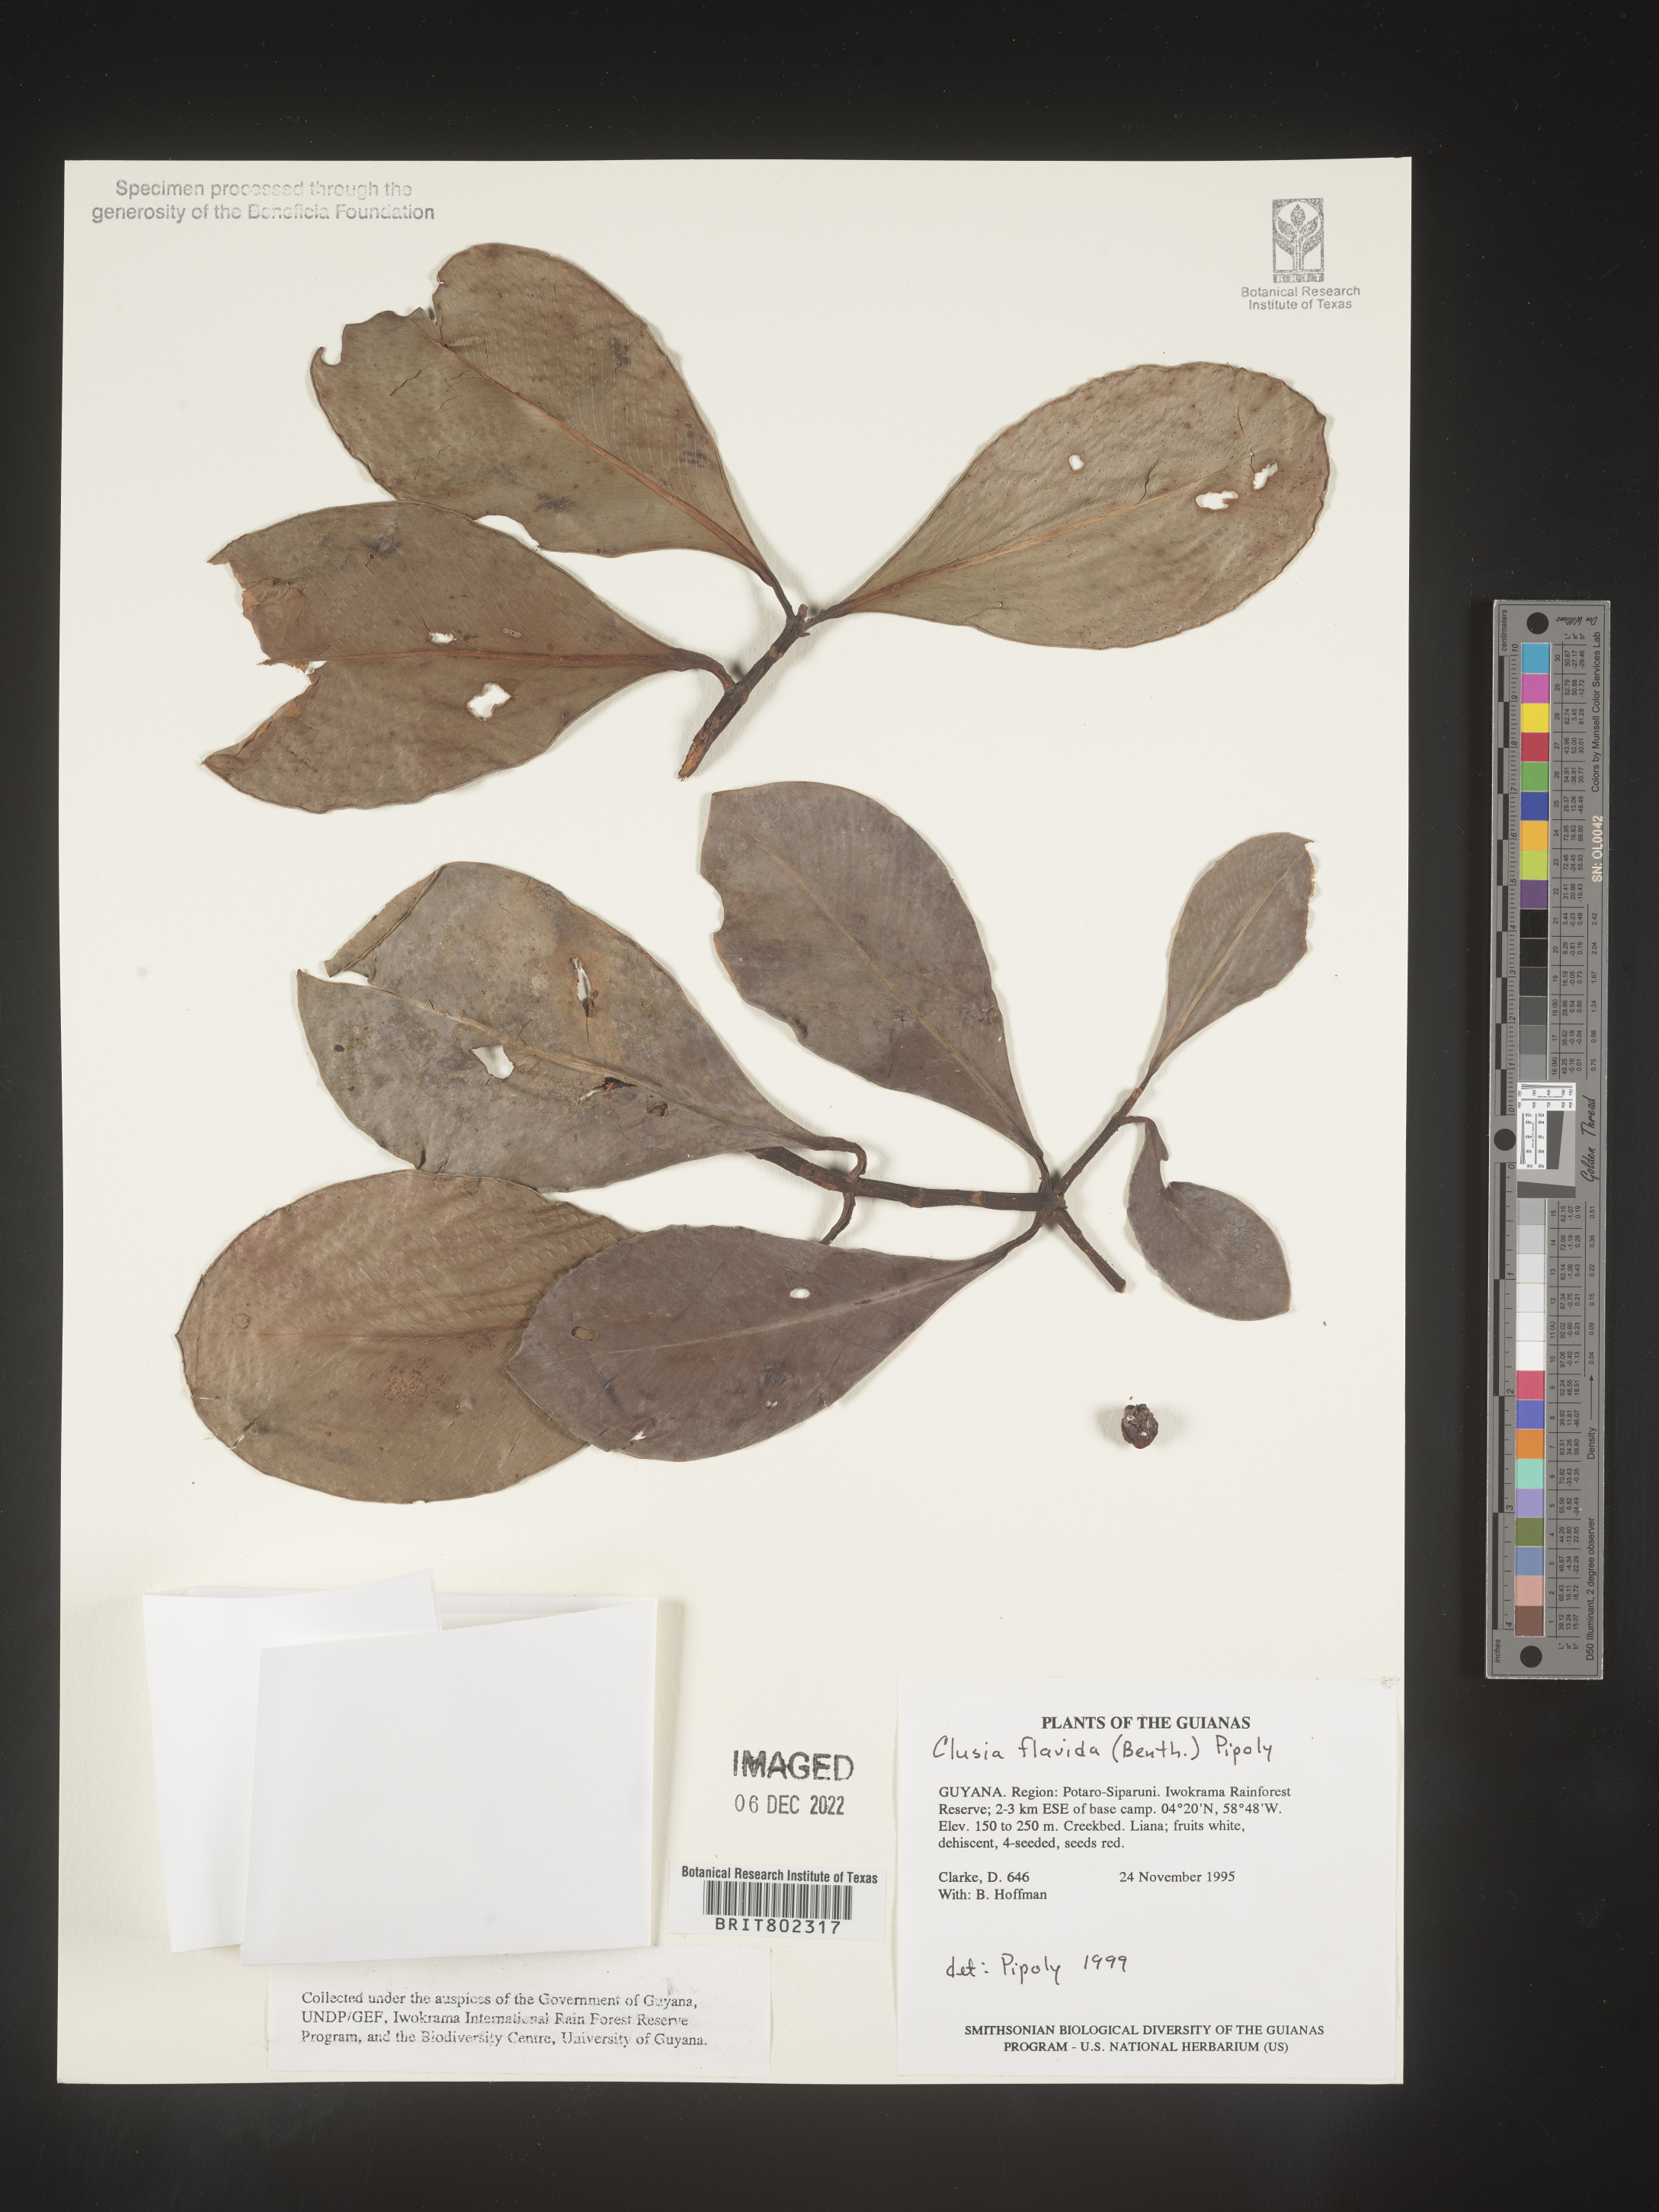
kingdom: Plantae
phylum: Tracheophyta
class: Magnoliopsida
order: Malpighiales
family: Clusiaceae
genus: Clusia
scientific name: Clusia flavida
